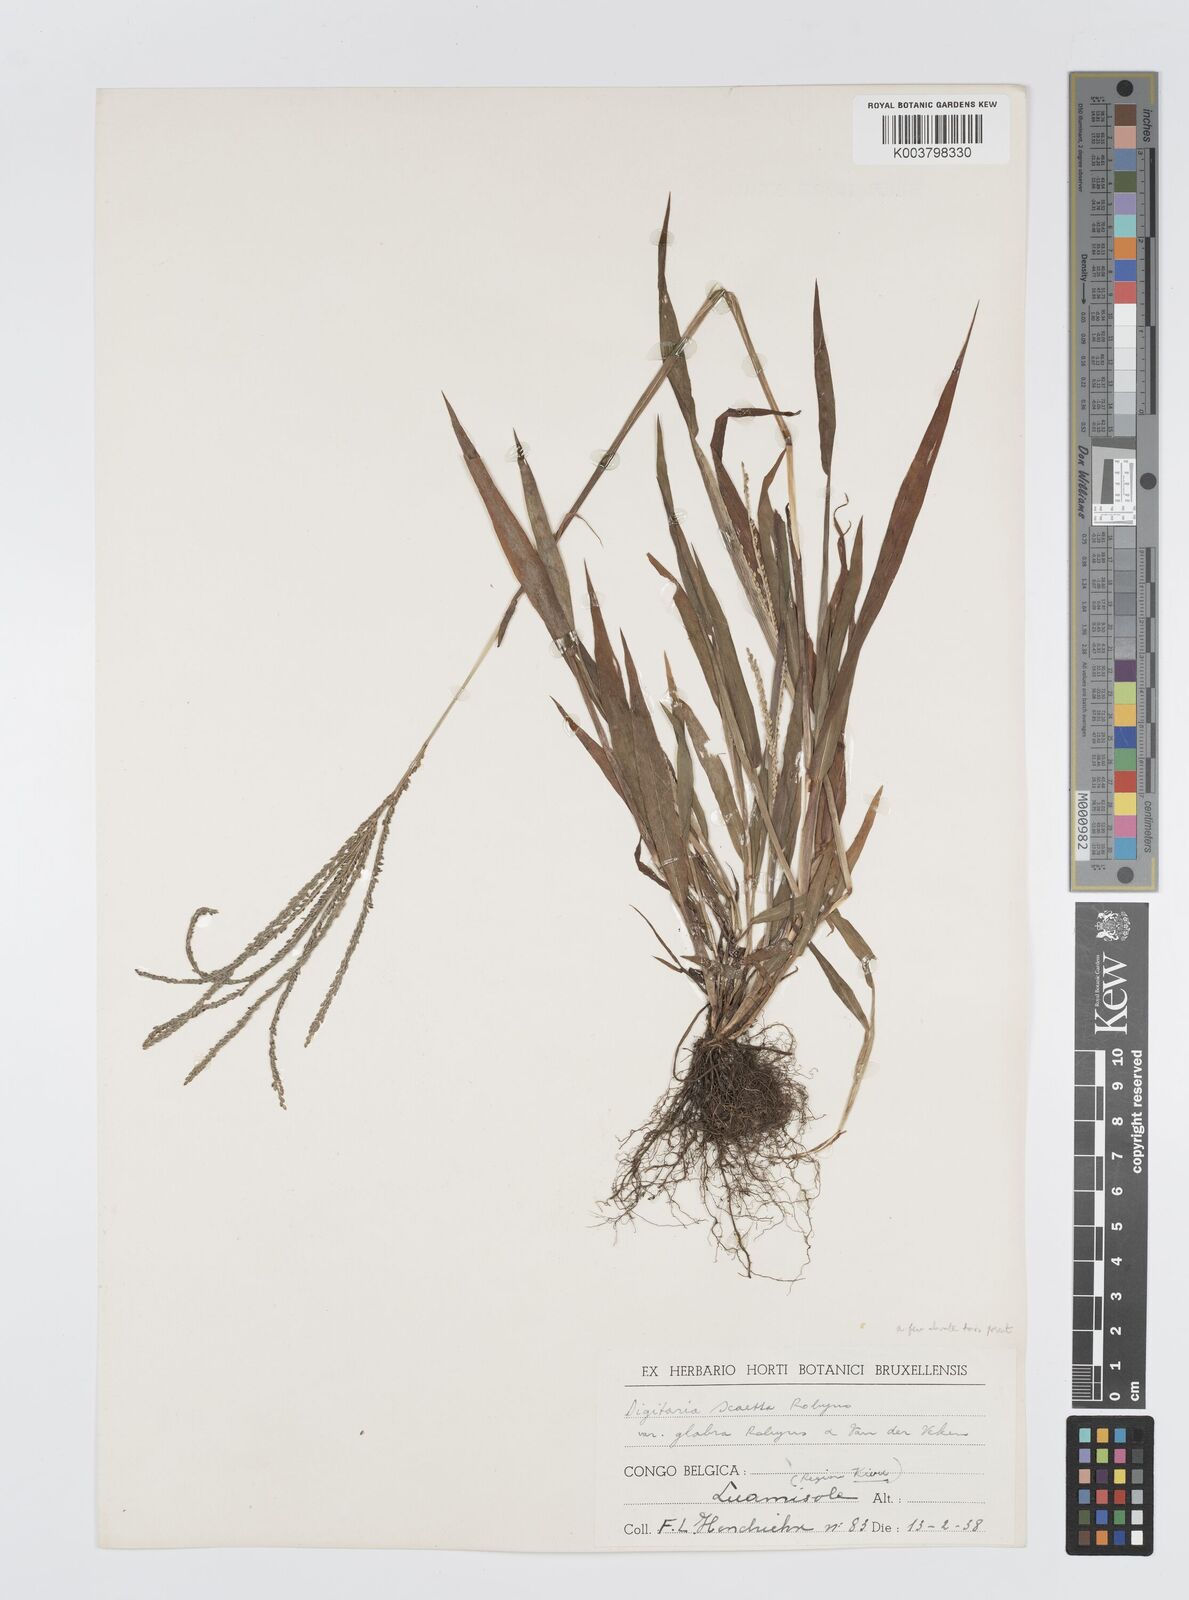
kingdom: Plantae
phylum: Tracheophyta
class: Liliopsida
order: Poales
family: Poaceae
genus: Digitaria
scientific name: Digitaria thouarsiana
